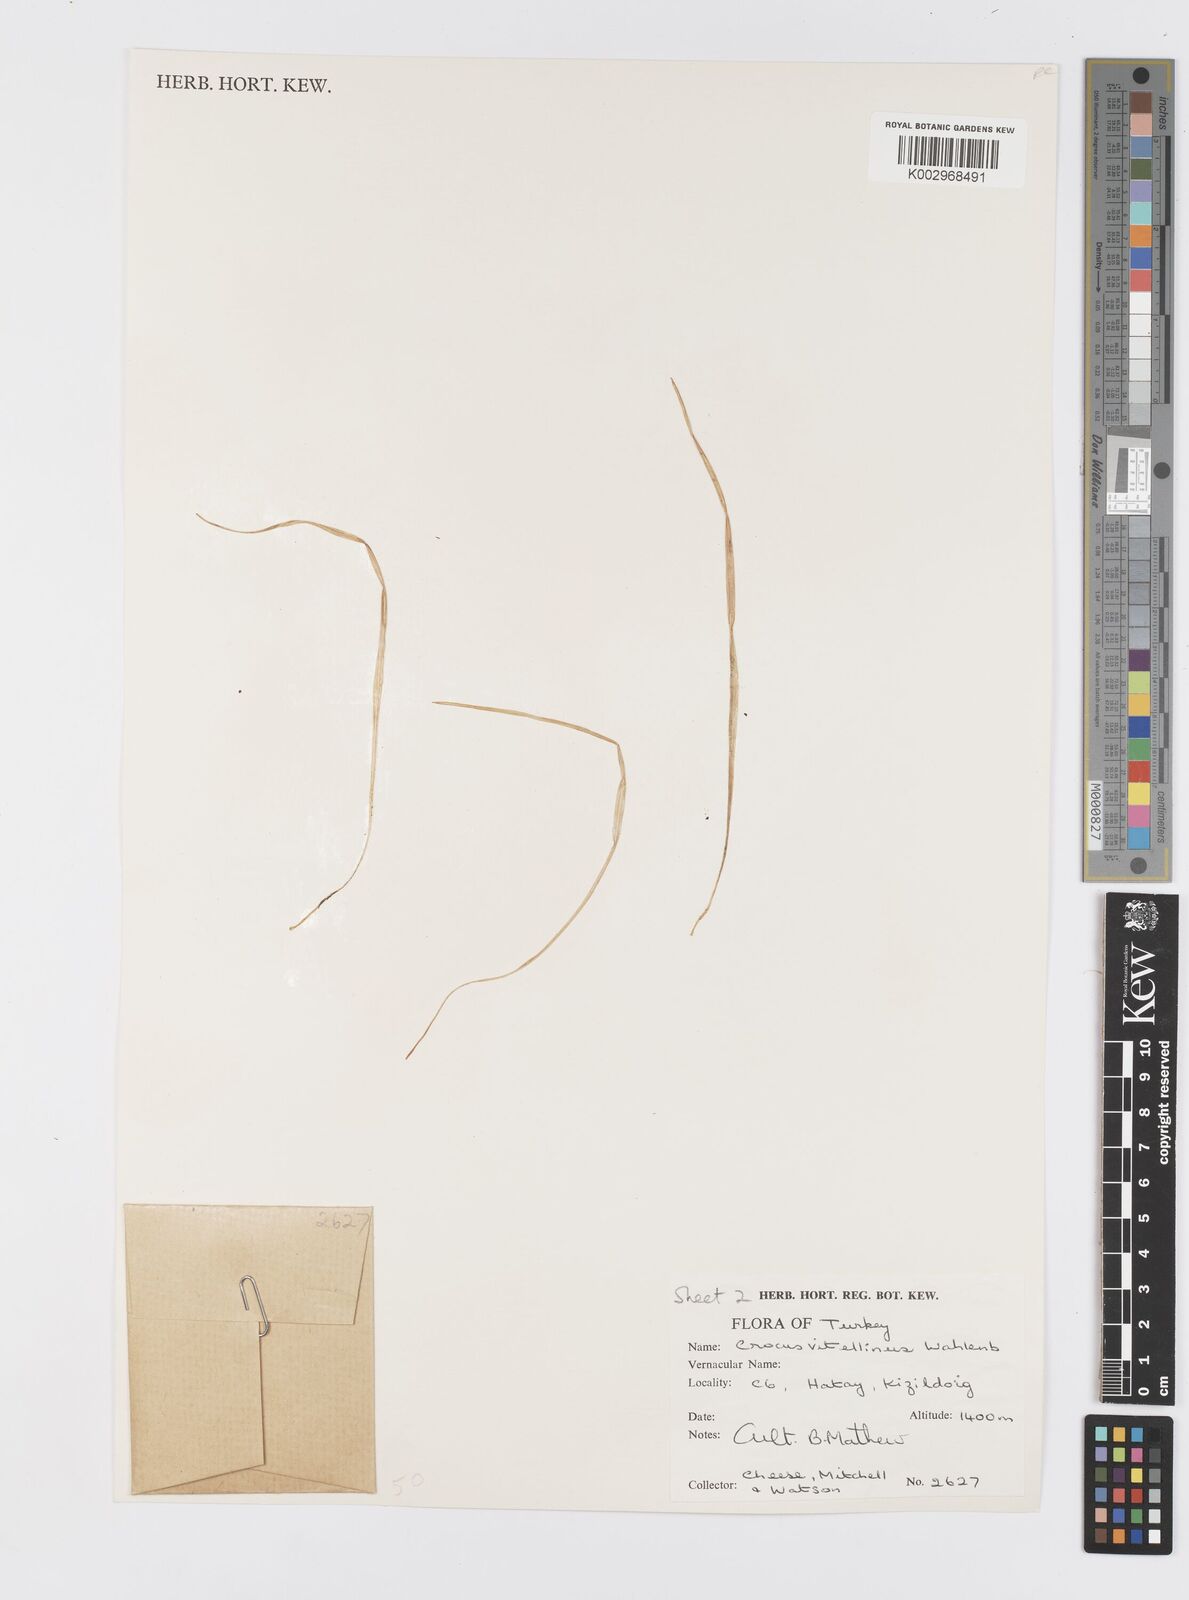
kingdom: Plantae
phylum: Tracheophyta
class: Liliopsida
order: Asparagales
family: Iridaceae
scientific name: Iridaceae
